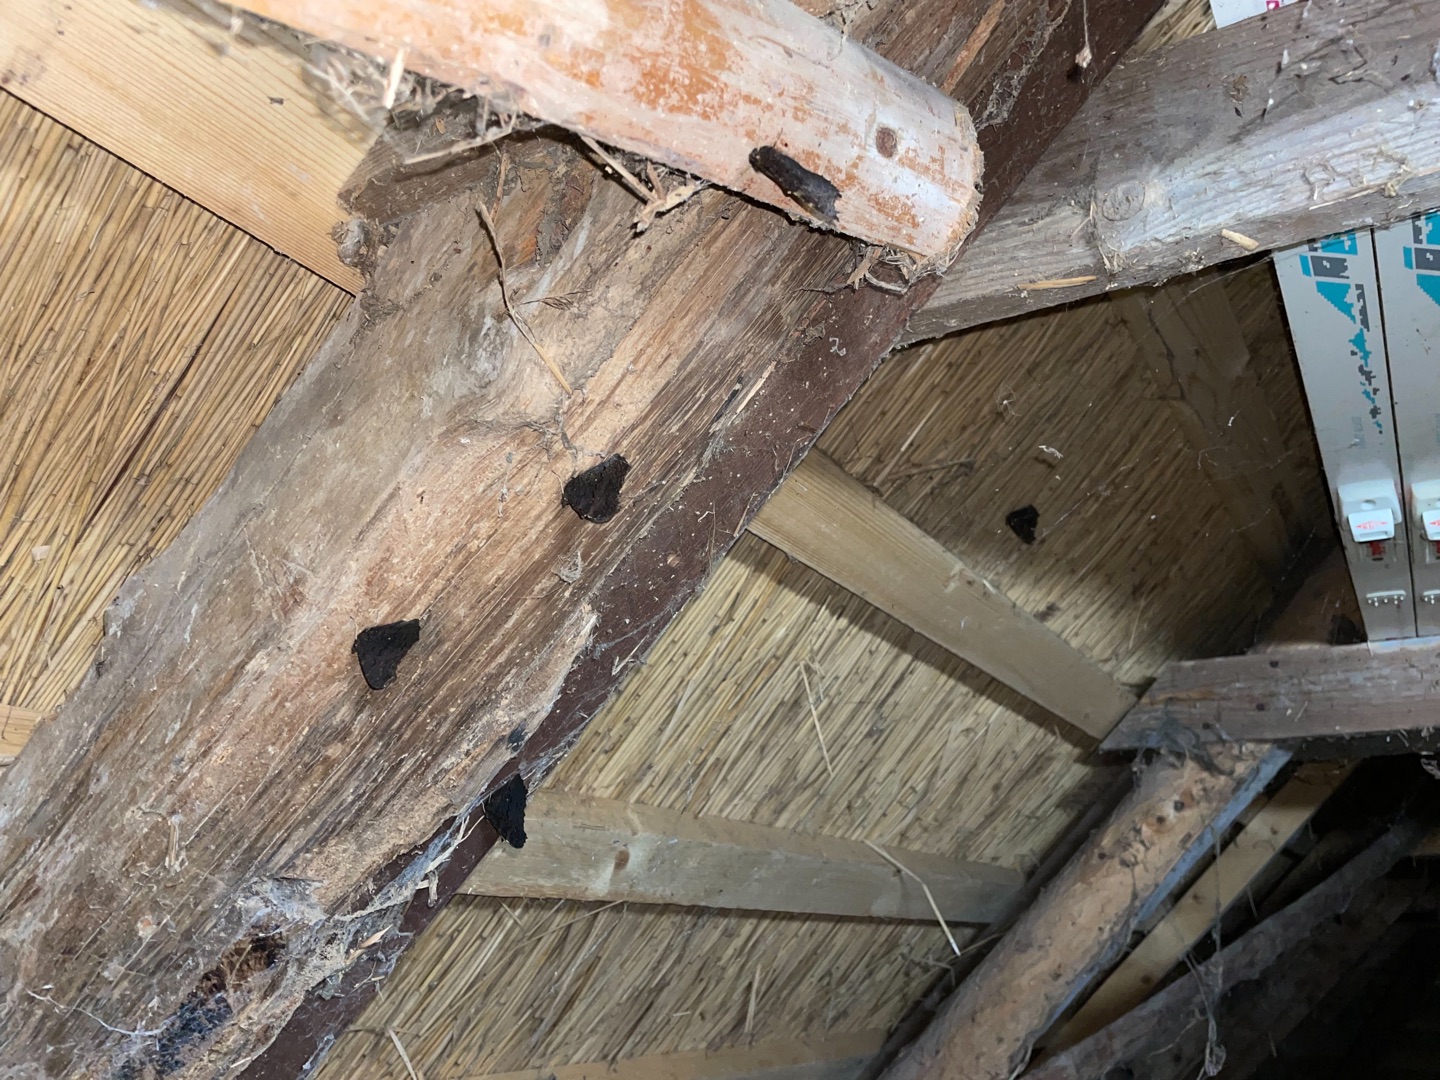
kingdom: Animalia
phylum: Arthropoda
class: Insecta
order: Lepidoptera
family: Nymphalidae
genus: Aglais
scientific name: Aglais io
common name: Dagpåfugleøje
